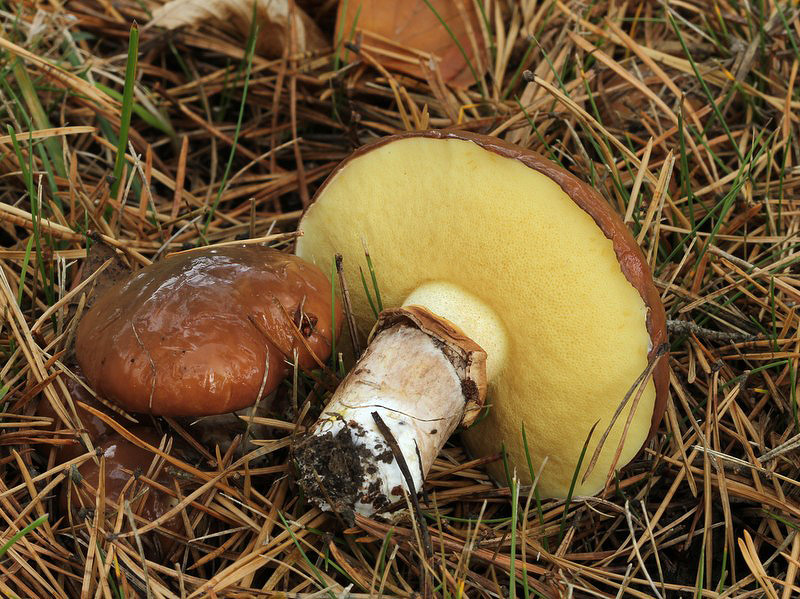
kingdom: Fungi
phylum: Basidiomycota
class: Agaricomycetes
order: Boletales
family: Suillaceae
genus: Suillus
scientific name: Suillus luteus
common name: brungul slimrørhat
